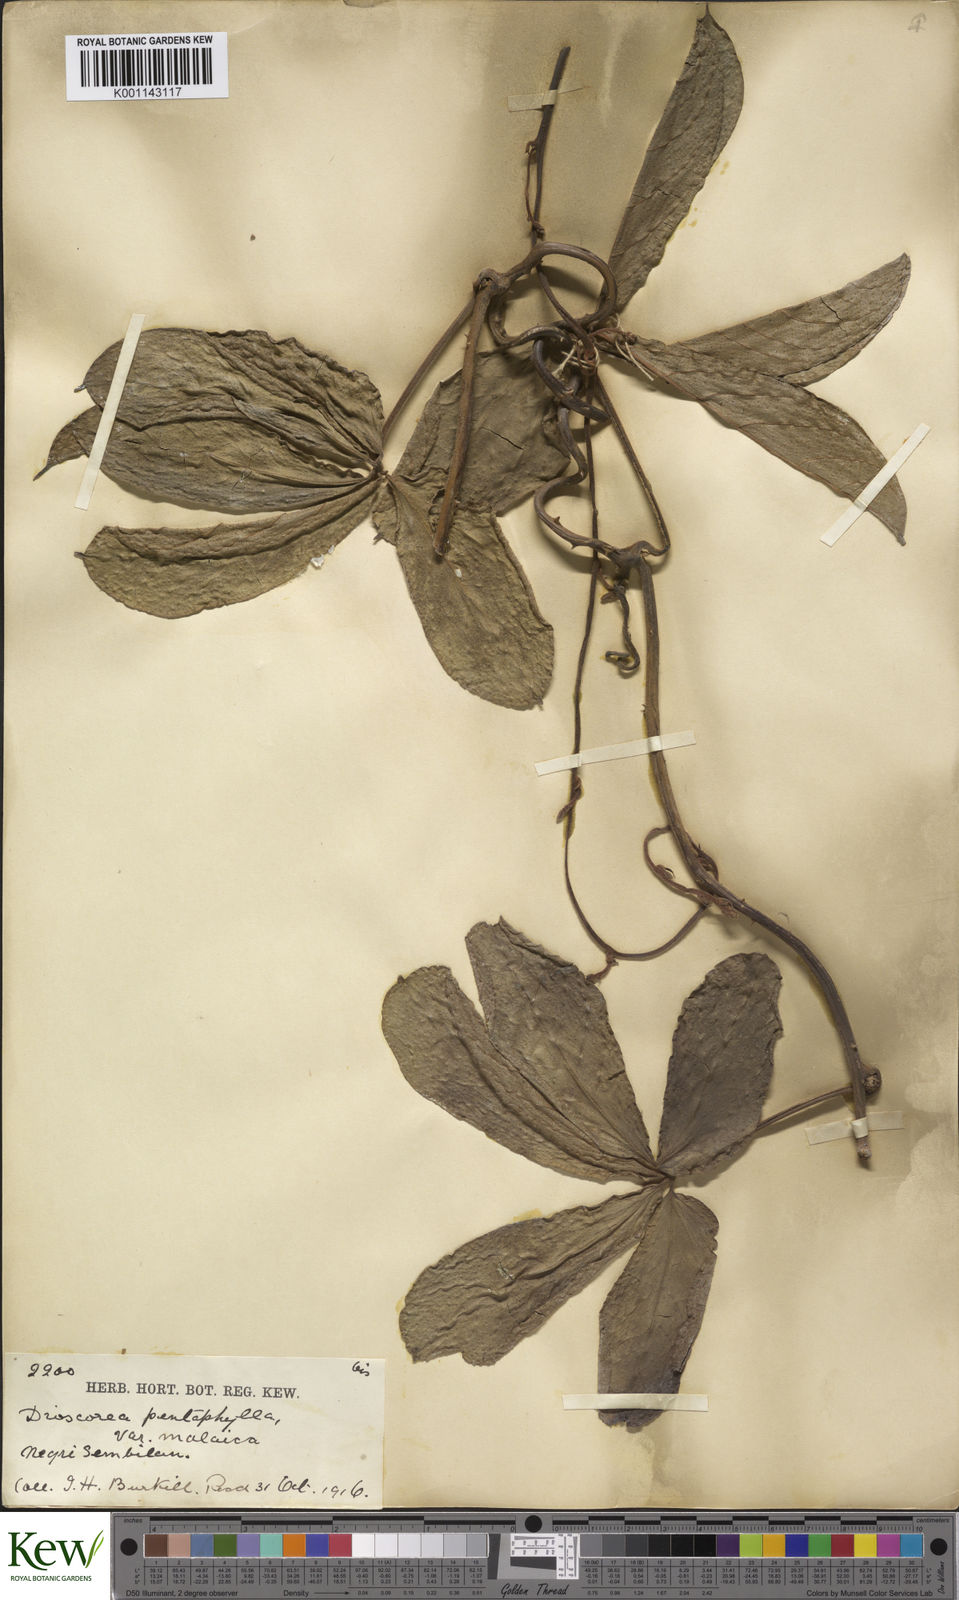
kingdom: Plantae
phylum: Tracheophyta
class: Liliopsida
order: Dioscoreales
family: Dioscoreaceae
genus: Dioscorea
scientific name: Dioscorea pentaphylla
